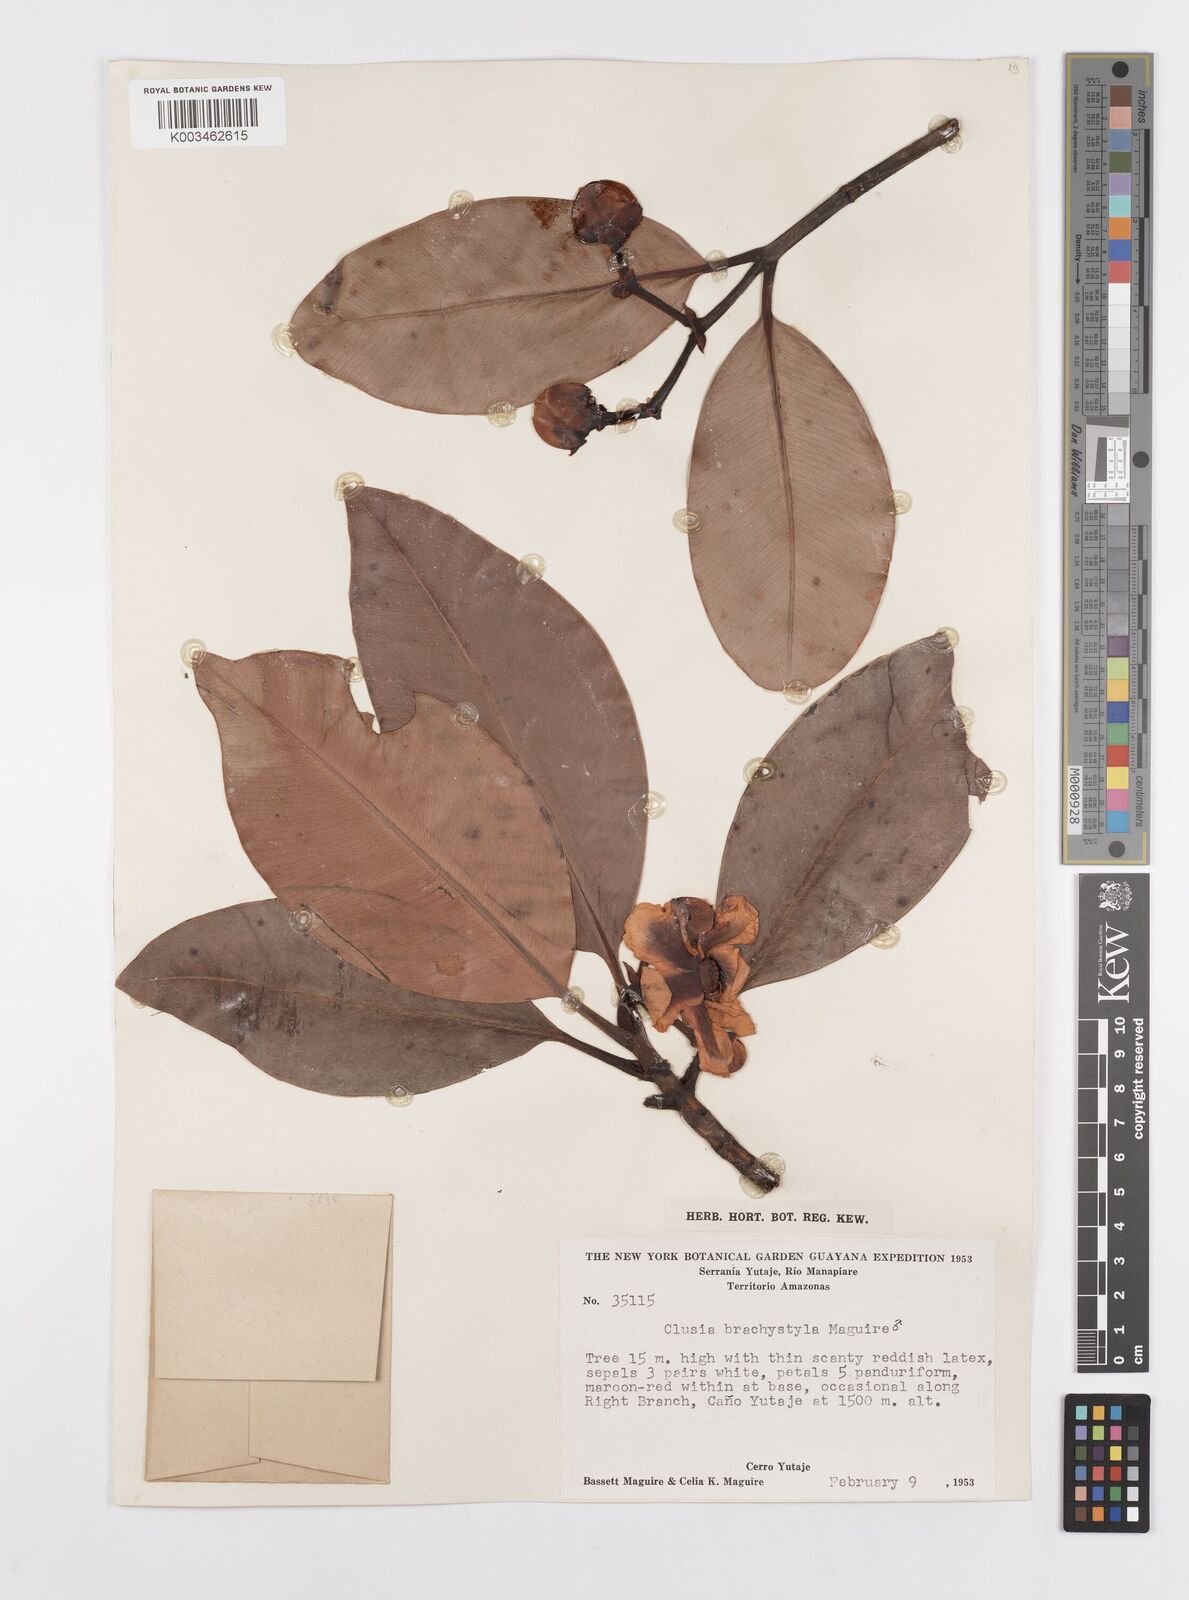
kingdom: Plantae
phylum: Tracheophyta
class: Magnoliopsida
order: Malpighiales
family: Clusiaceae
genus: Clusia
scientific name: Clusia brachystyla
